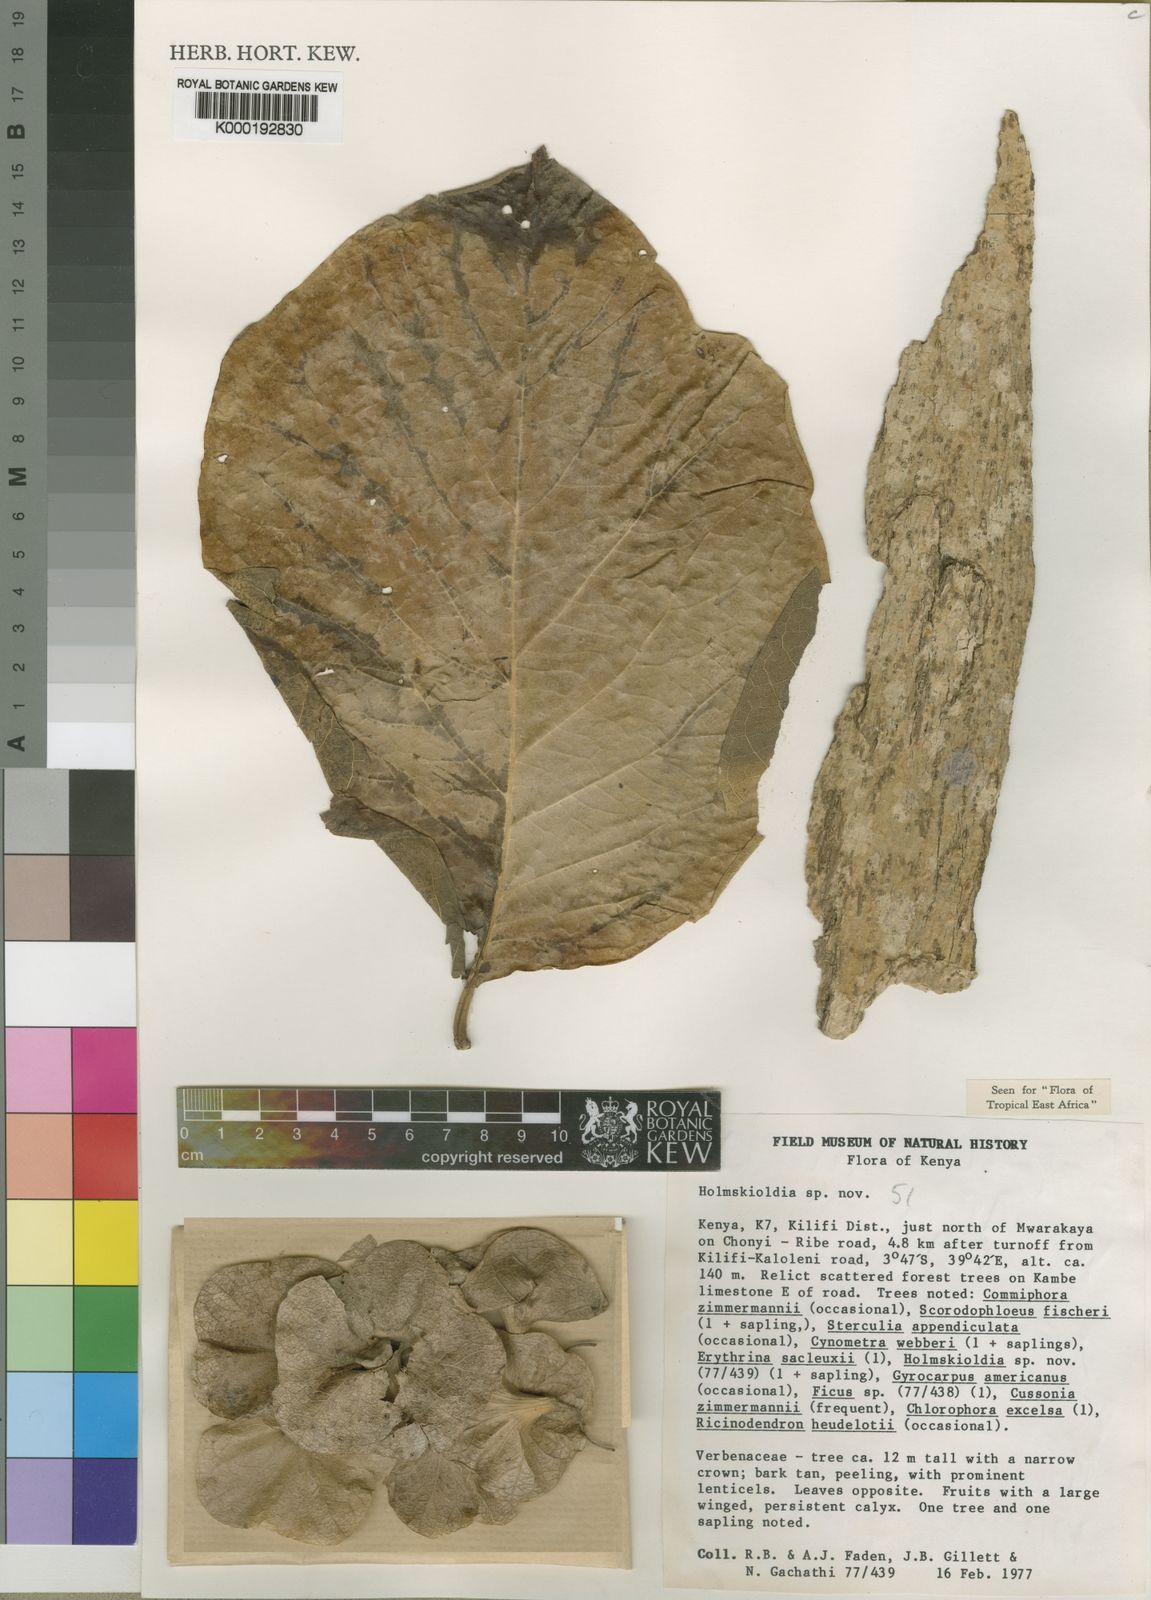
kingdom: Plantae
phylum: Tracheophyta
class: Magnoliopsida
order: Lamiales
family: Lamiaceae
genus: Karomia
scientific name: Karomia gigas
